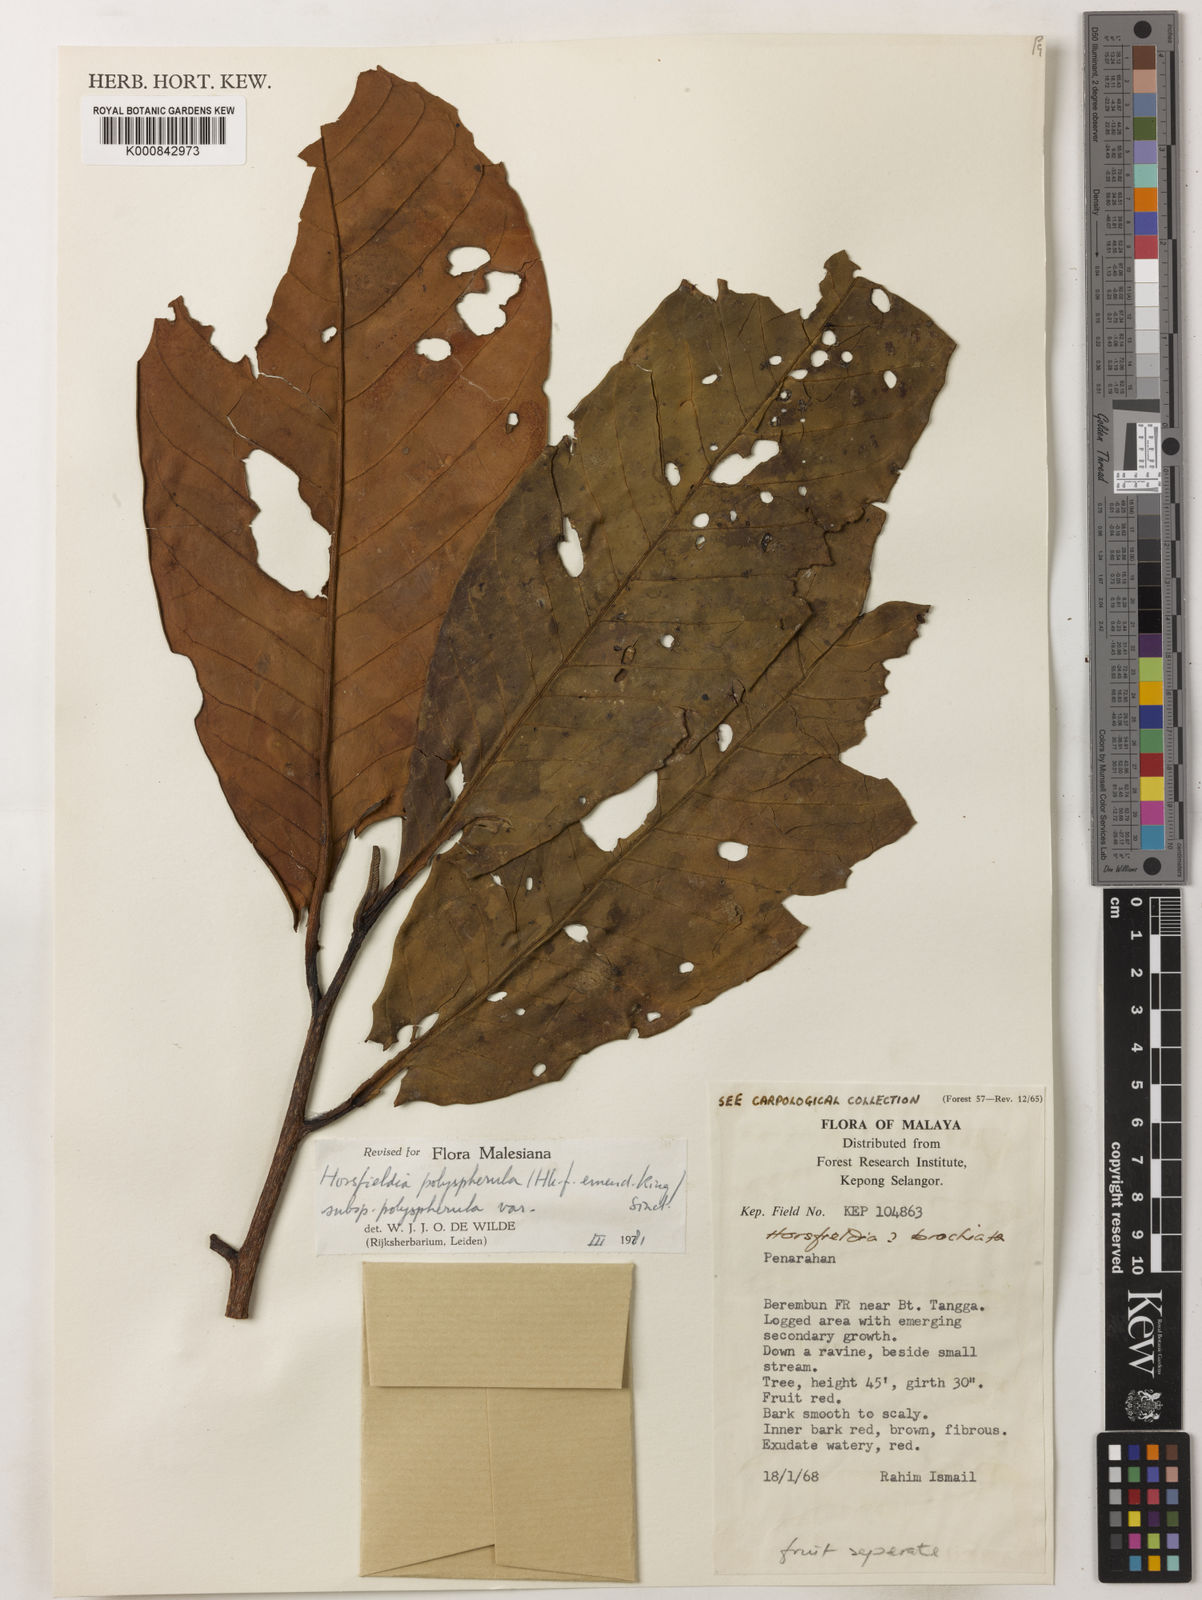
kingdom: Plantae
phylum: Tracheophyta
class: Magnoliopsida
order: Magnoliales
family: Myristicaceae
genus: Horsfieldia
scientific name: Horsfieldia
